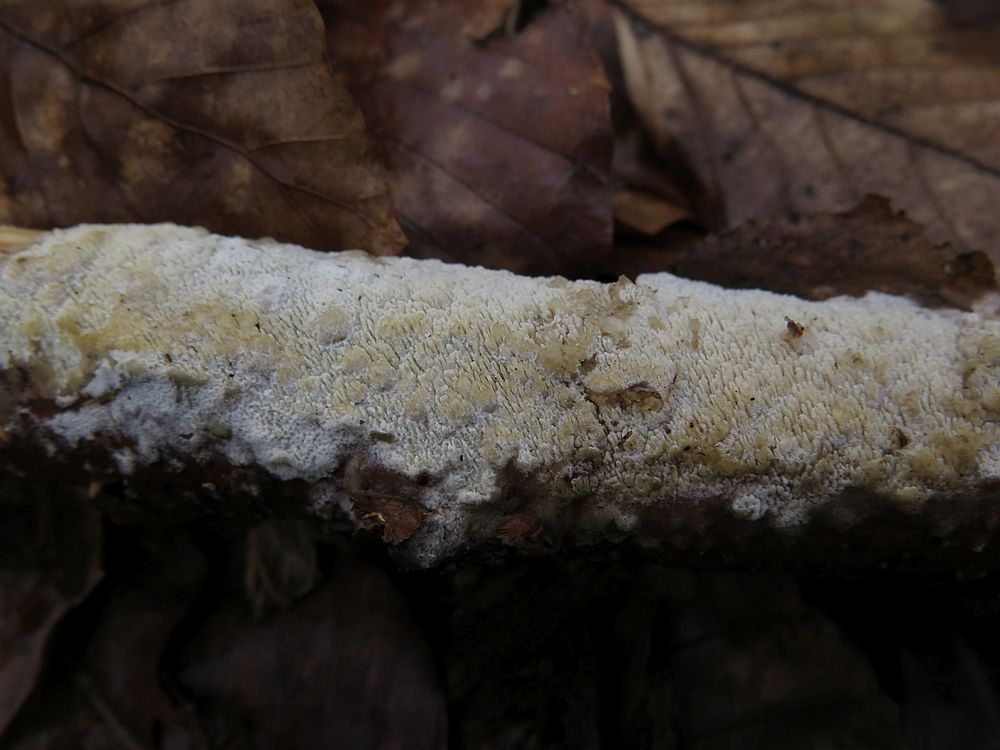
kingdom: Fungi
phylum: Basidiomycota
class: Agaricomycetes
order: Hymenochaetales
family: Schizoporaceae
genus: Schizopora
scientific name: Schizopora paradoxa
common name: hvid tandsvamp
